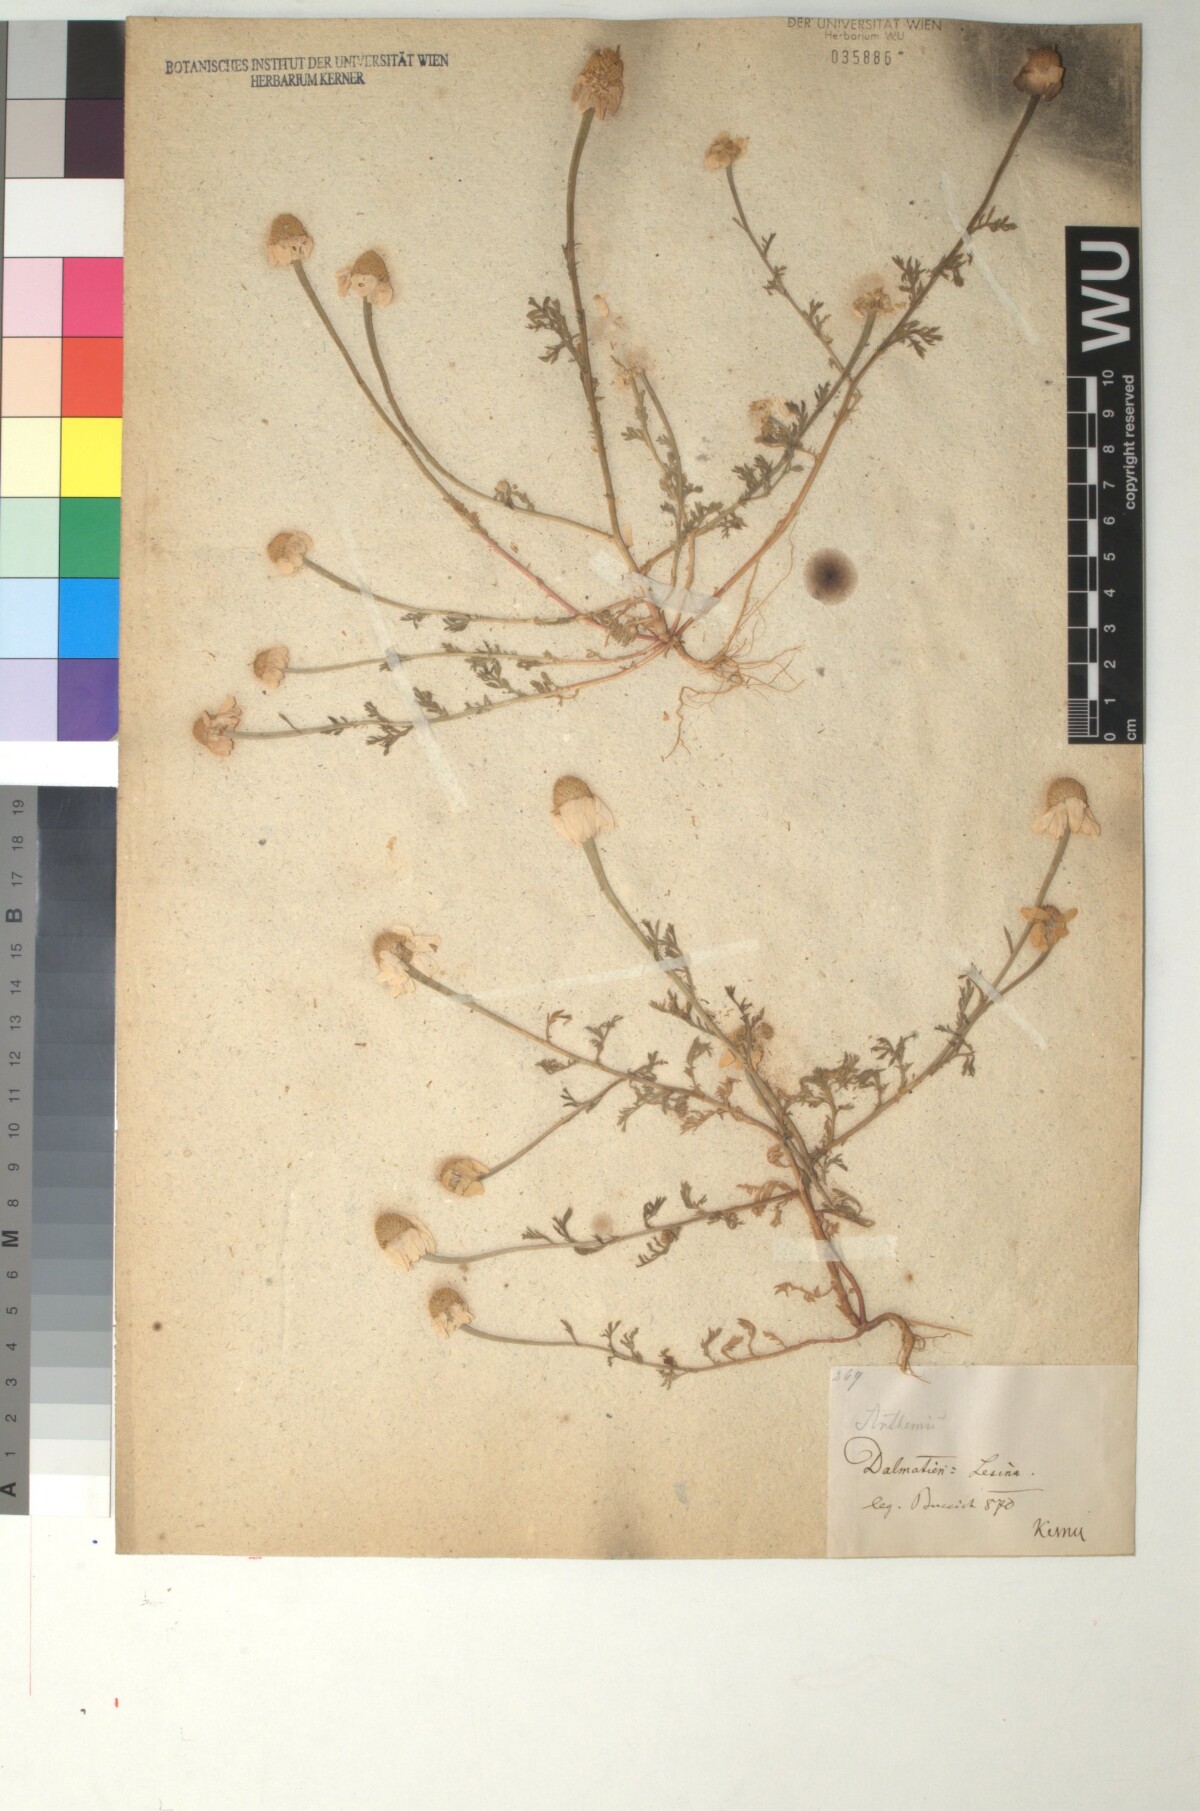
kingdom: Plantae
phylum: Tracheophyta
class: Magnoliopsida
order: Asterales
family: Asteraceae
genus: Anthemis
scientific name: Anthemis arvensis
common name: Corn chamomile
